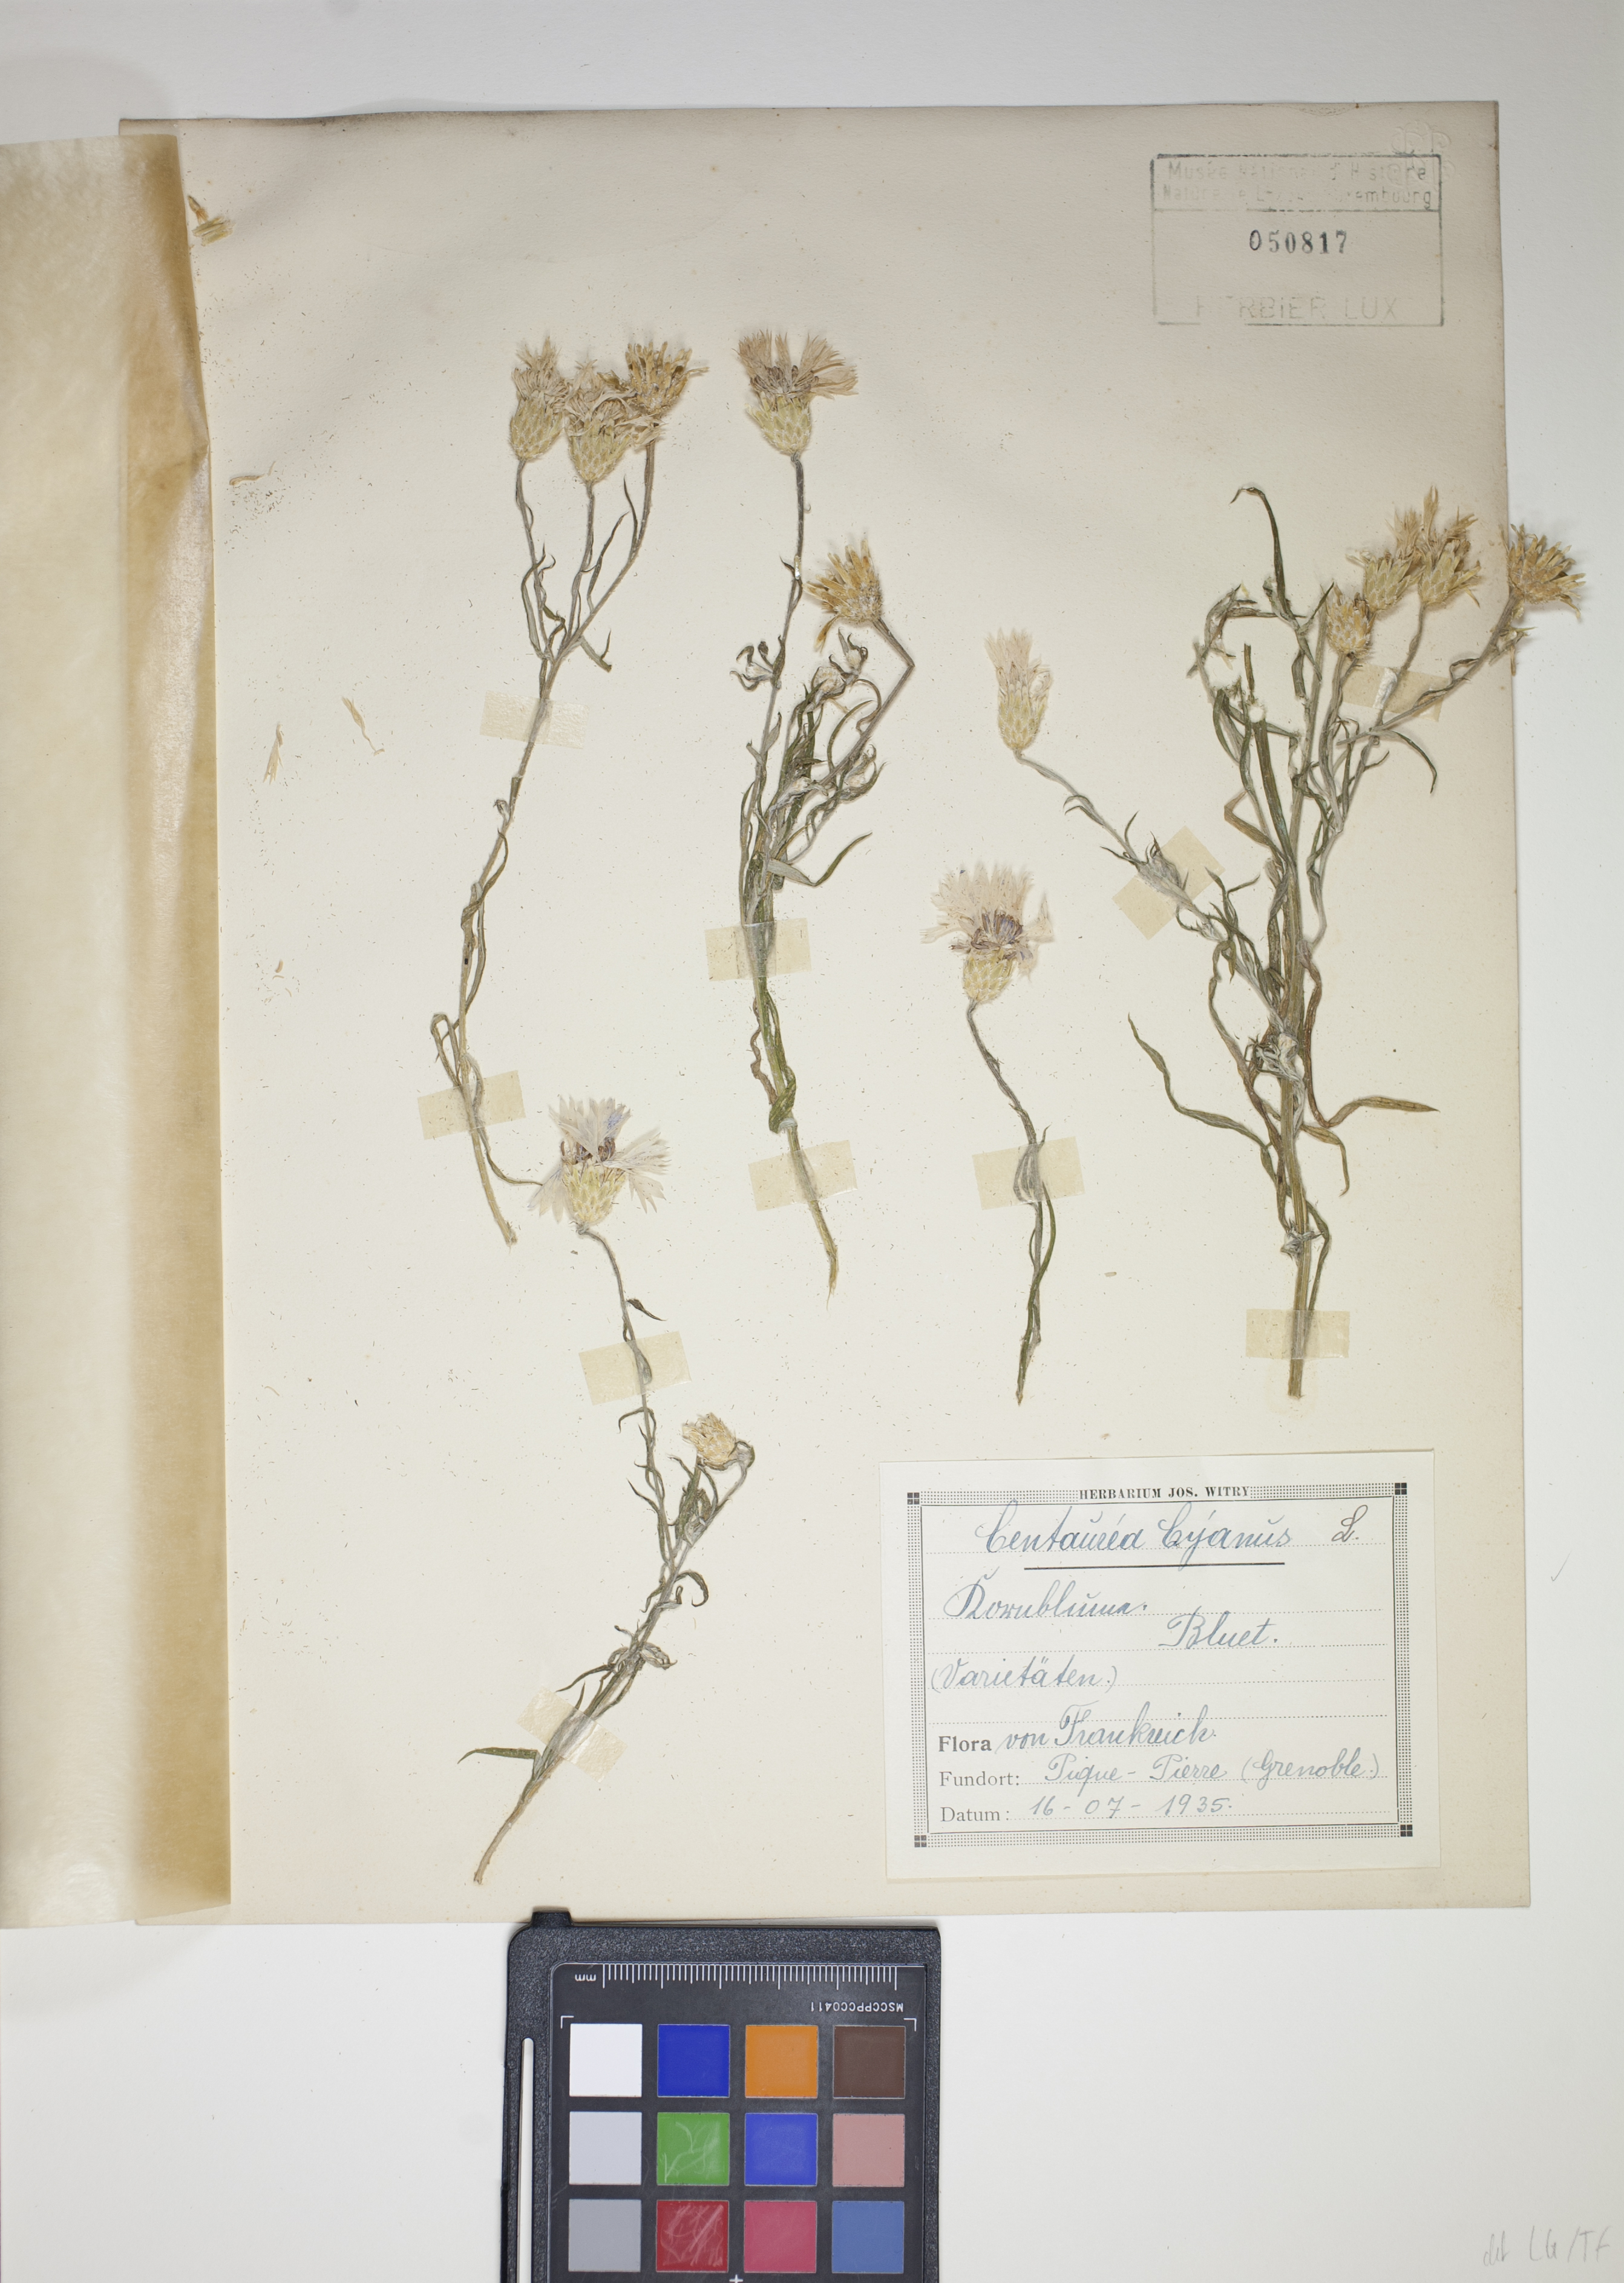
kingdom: Plantae
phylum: Tracheophyta
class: Magnoliopsida
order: Asterales
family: Asteraceae
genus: Centaurea
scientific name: Centaurea cyanus
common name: Cornflower
